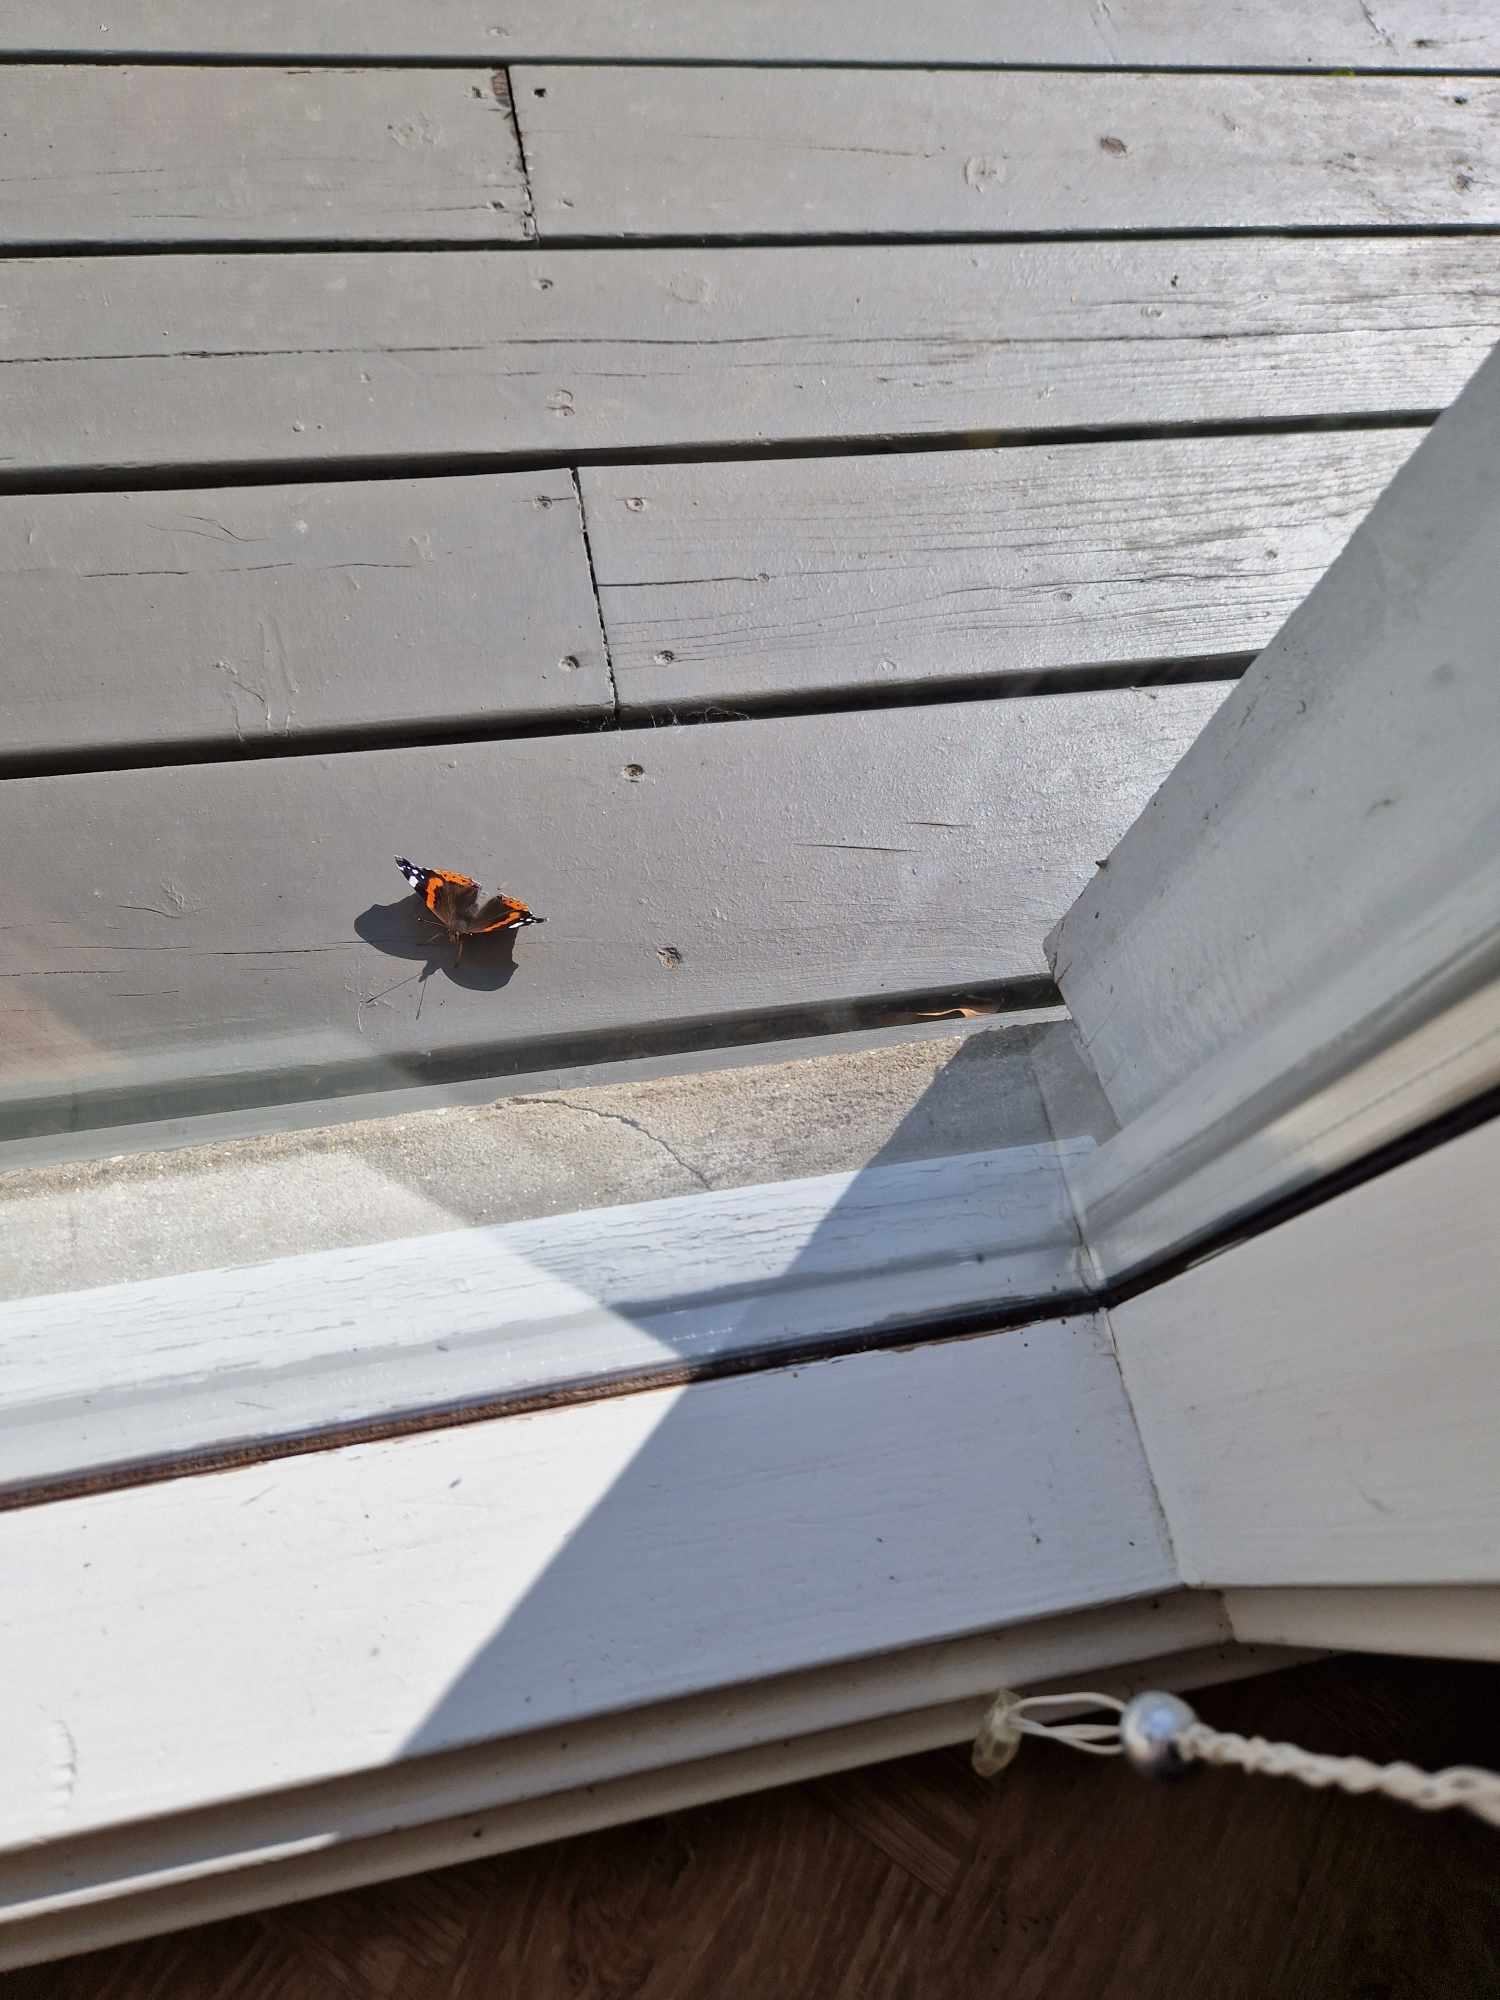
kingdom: Animalia
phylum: Arthropoda
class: Insecta
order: Lepidoptera
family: Nymphalidae
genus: Vanessa
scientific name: Vanessa atalanta
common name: Admiral
